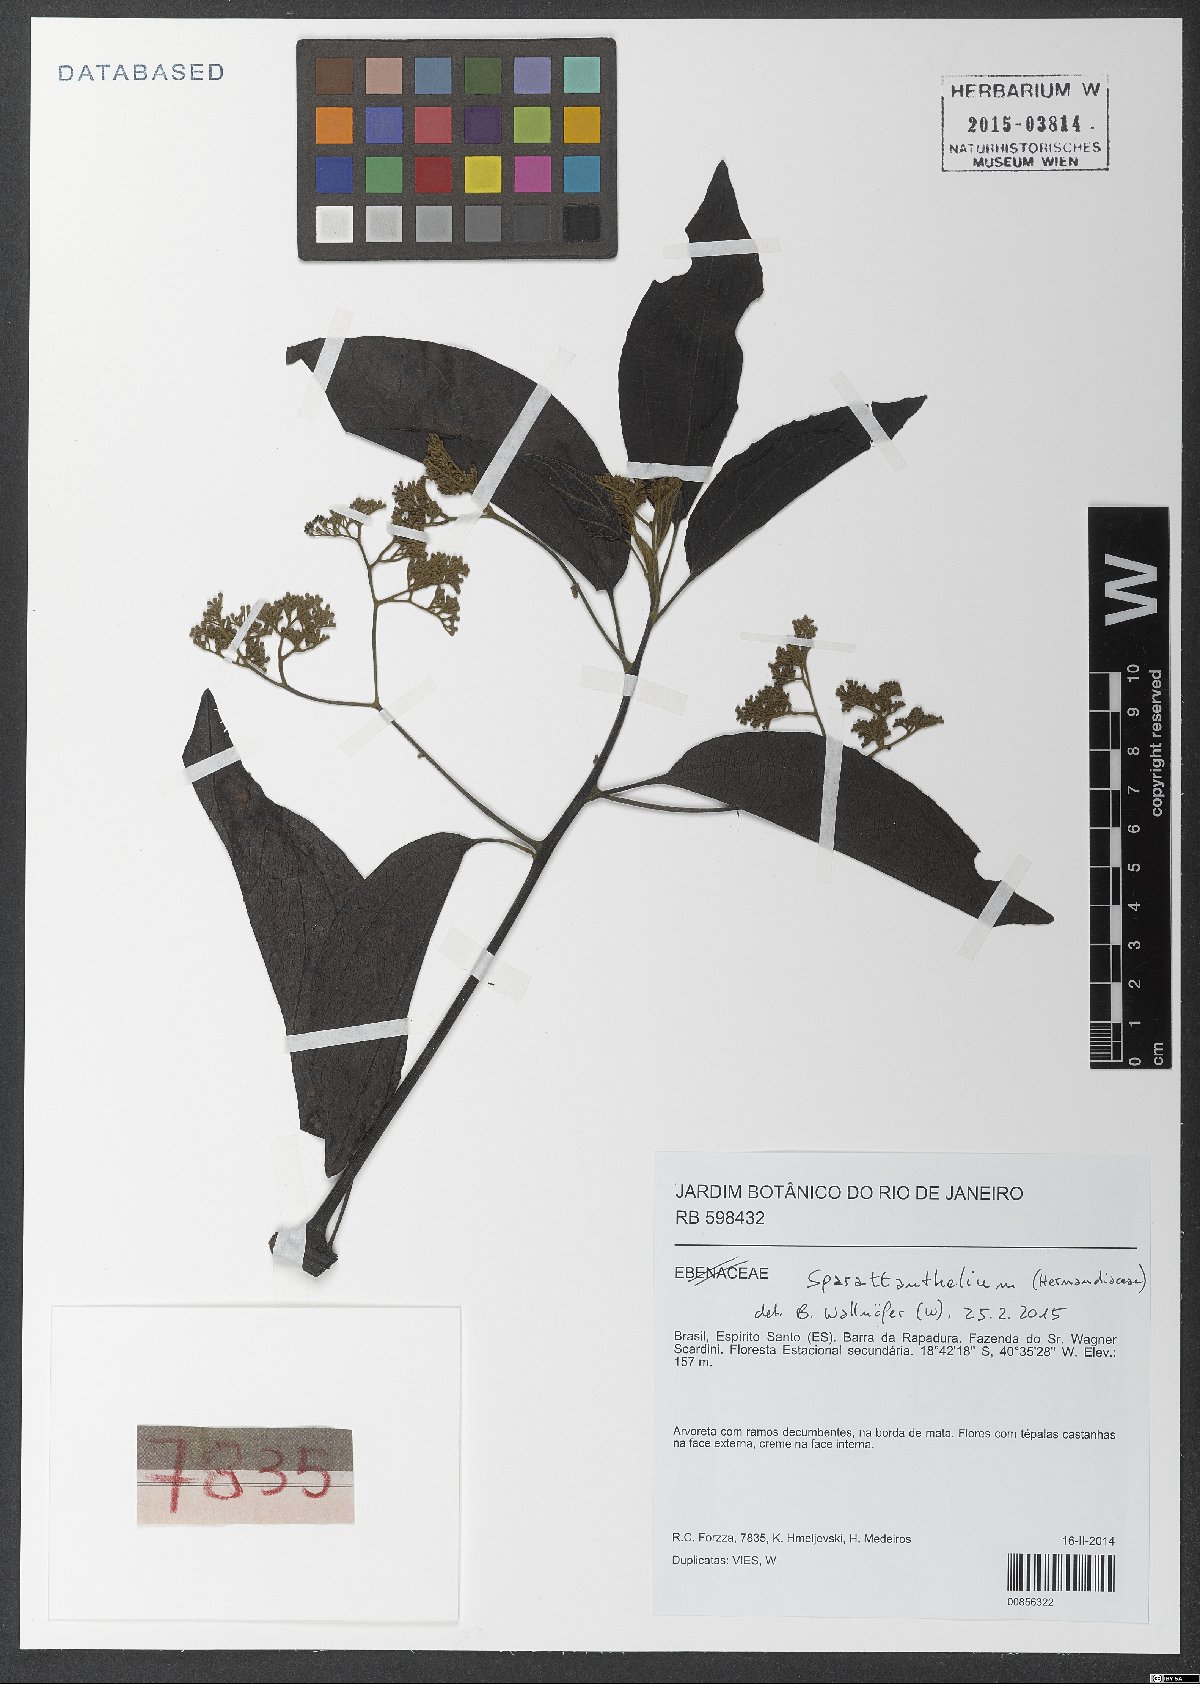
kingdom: Plantae
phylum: Tracheophyta
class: Magnoliopsida
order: Laurales
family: Hernandiaceae
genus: Sparattanthelium
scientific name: Sparattanthelium
